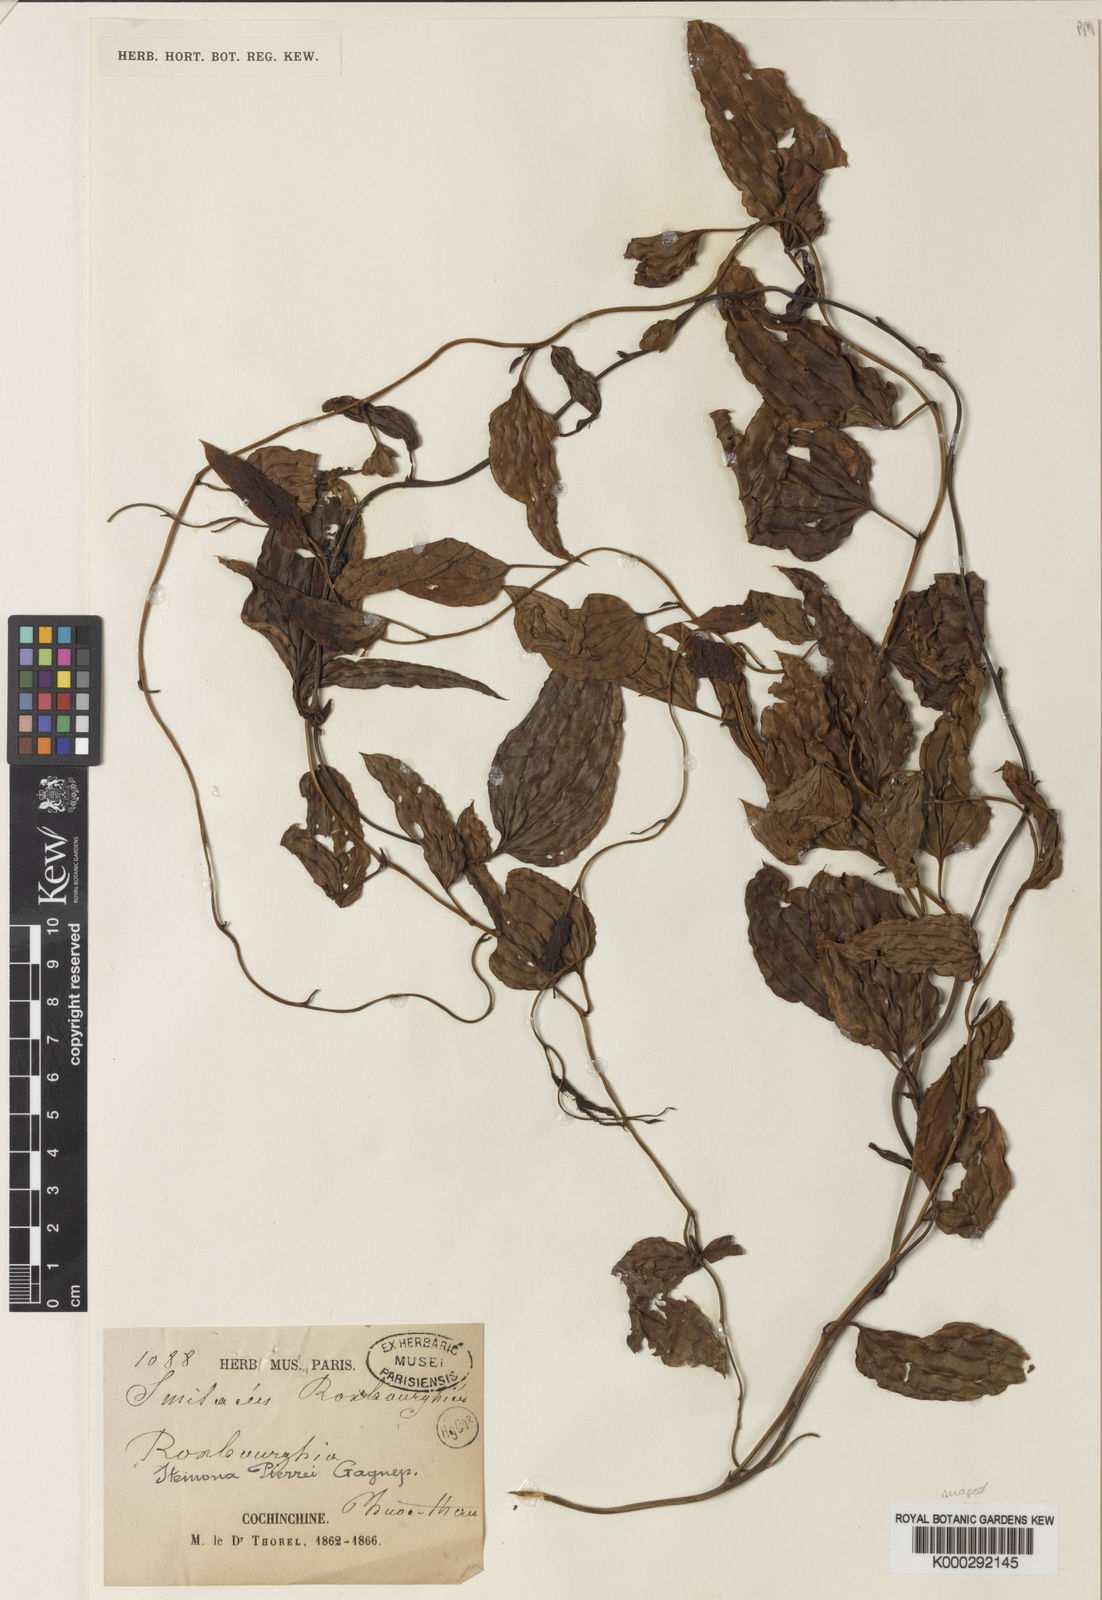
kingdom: Plantae
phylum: Tracheophyta
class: Liliopsida
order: Pandanales
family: Stemonaceae
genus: Stemona
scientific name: Stemona pierrei
